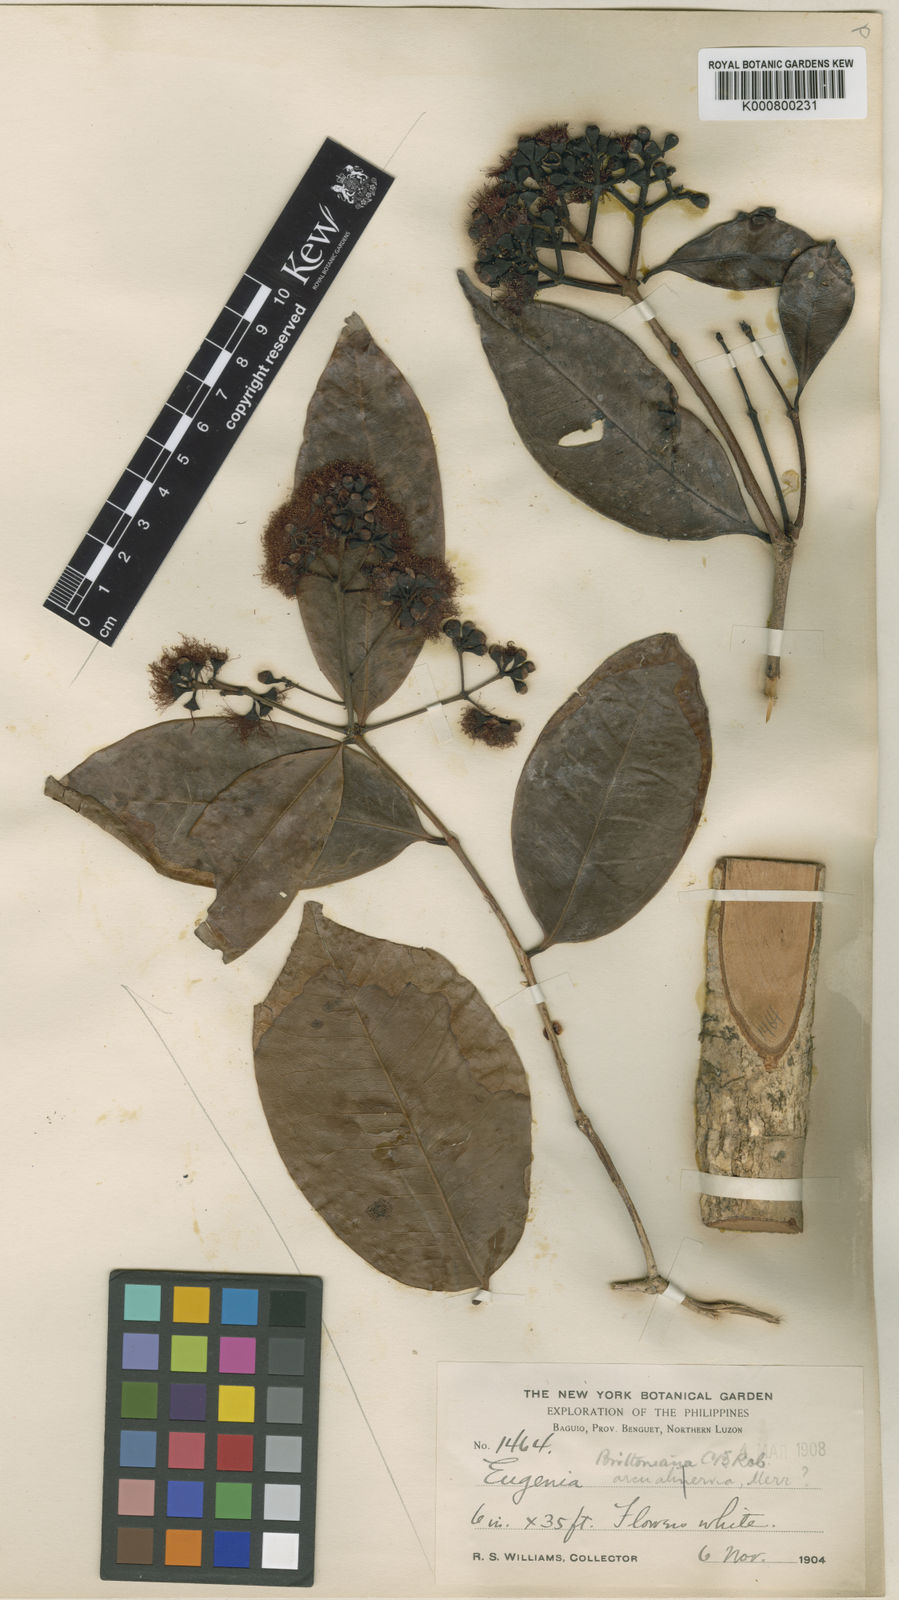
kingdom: Plantae
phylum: Tracheophyta
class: Magnoliopsida
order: Myrtales
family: Myrtaceae
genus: Syzygium
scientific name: Syzygium brittonianum
